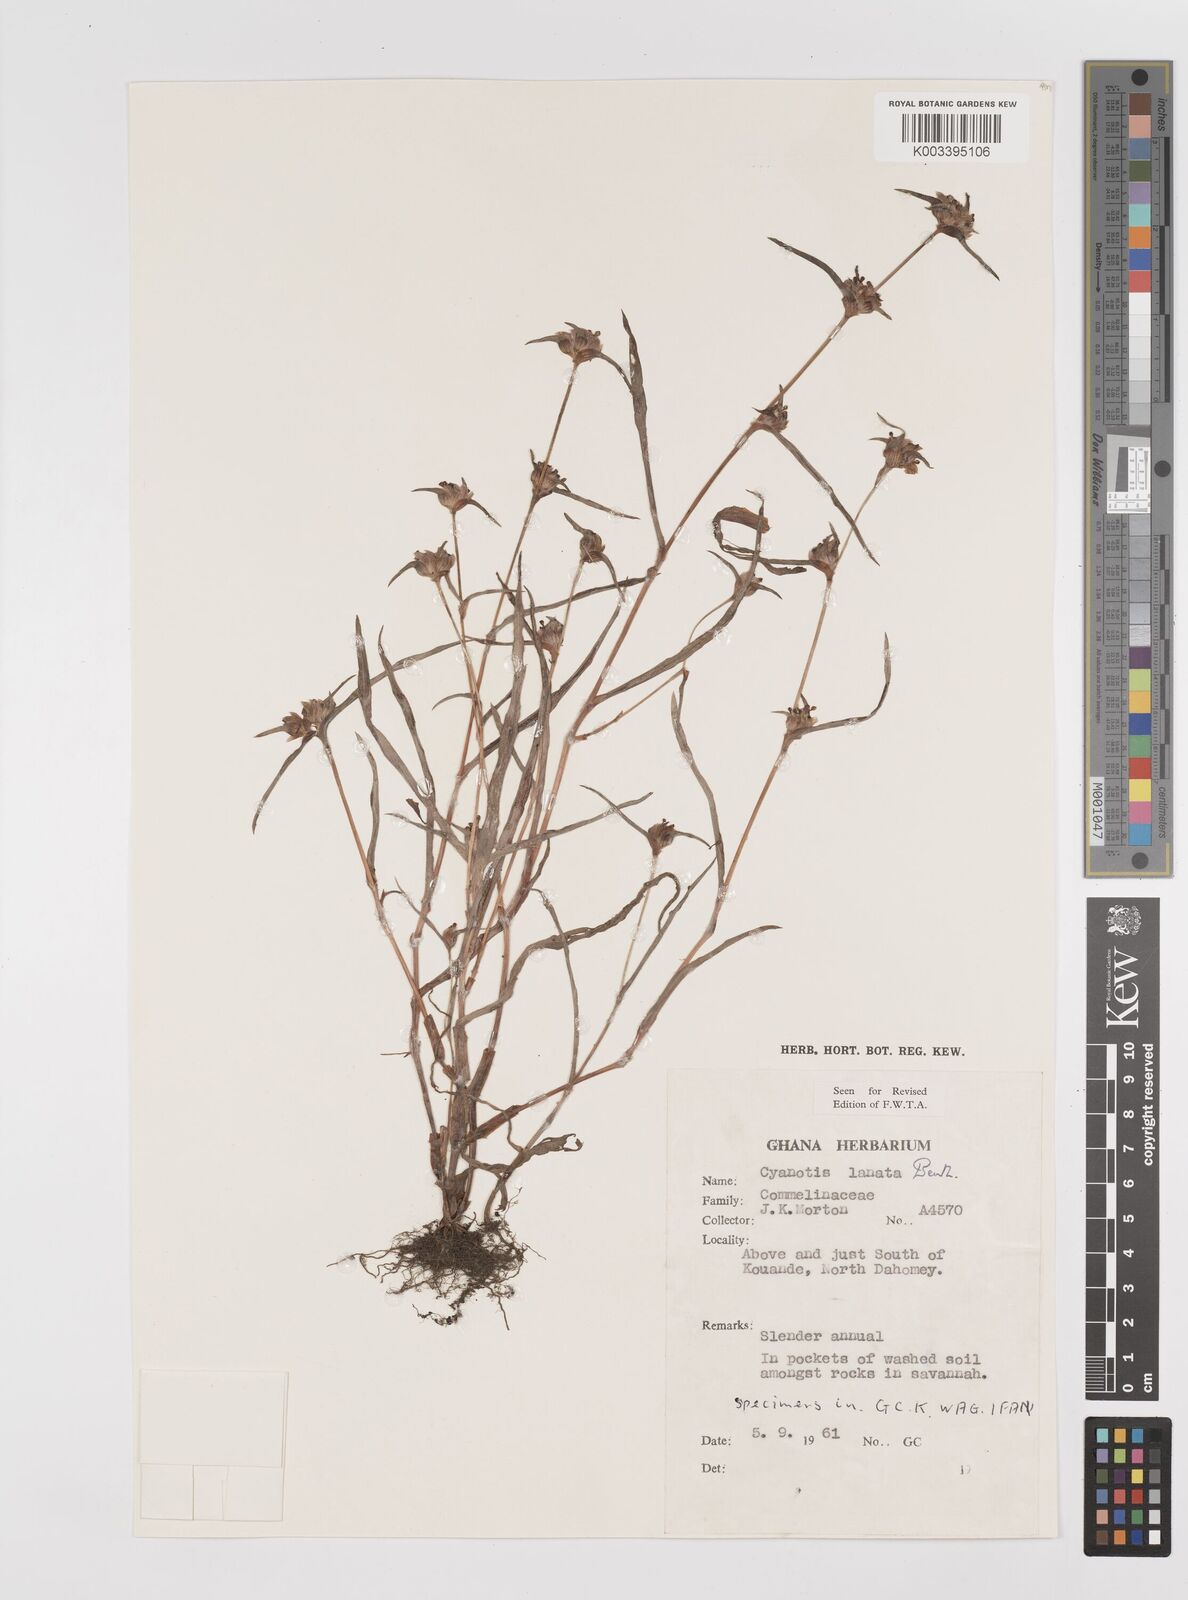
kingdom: Plantae
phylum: Tracheophyta
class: Liliopsida
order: Commelinales
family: Commelinaceae
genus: Cyanotis
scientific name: Cyanotis lanata
